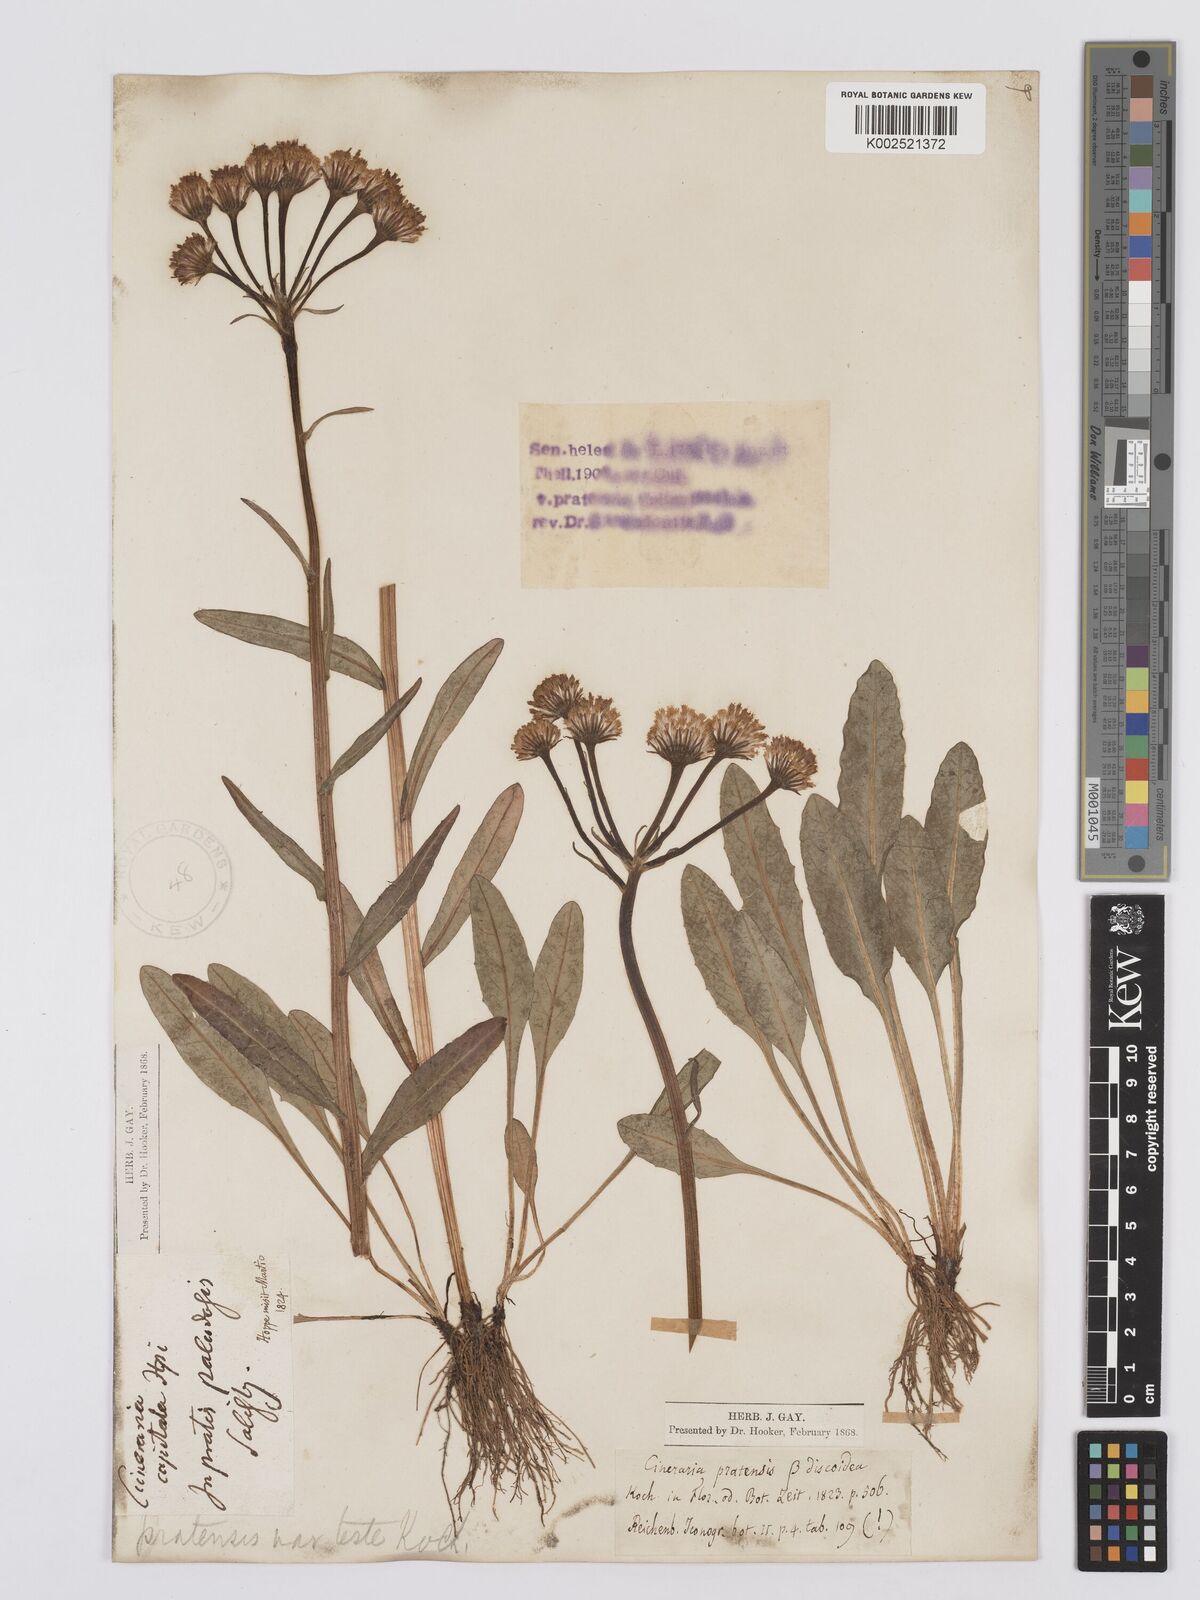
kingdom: Plantae
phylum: Tracheophyta
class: Magnoliopsida
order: Asterales
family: Asteraceae
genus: Tephroseris
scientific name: Tephroseris helenitis
